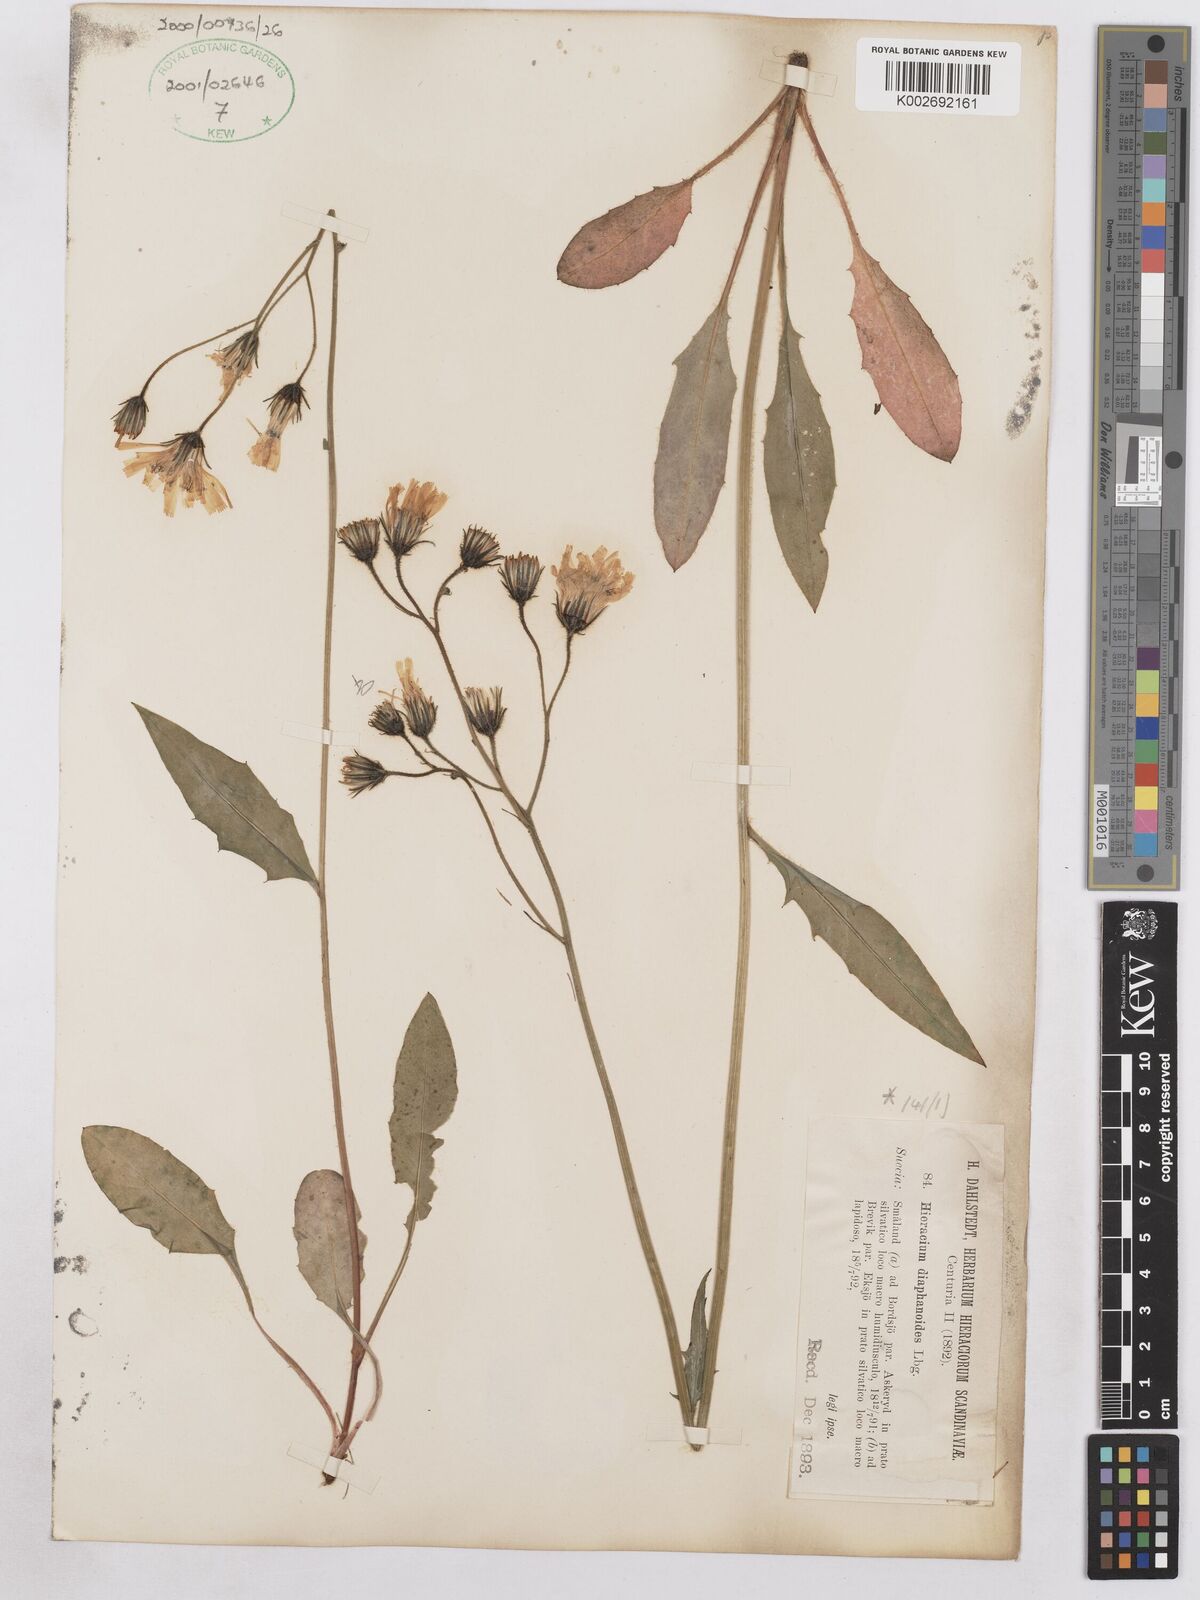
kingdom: Plantae
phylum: Tracheophyta
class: Magnoliopsida
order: Asterales
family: Asteraceae
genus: Hieracium
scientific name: Hieracium diaphanoides
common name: Fine-bracted hawkweed
